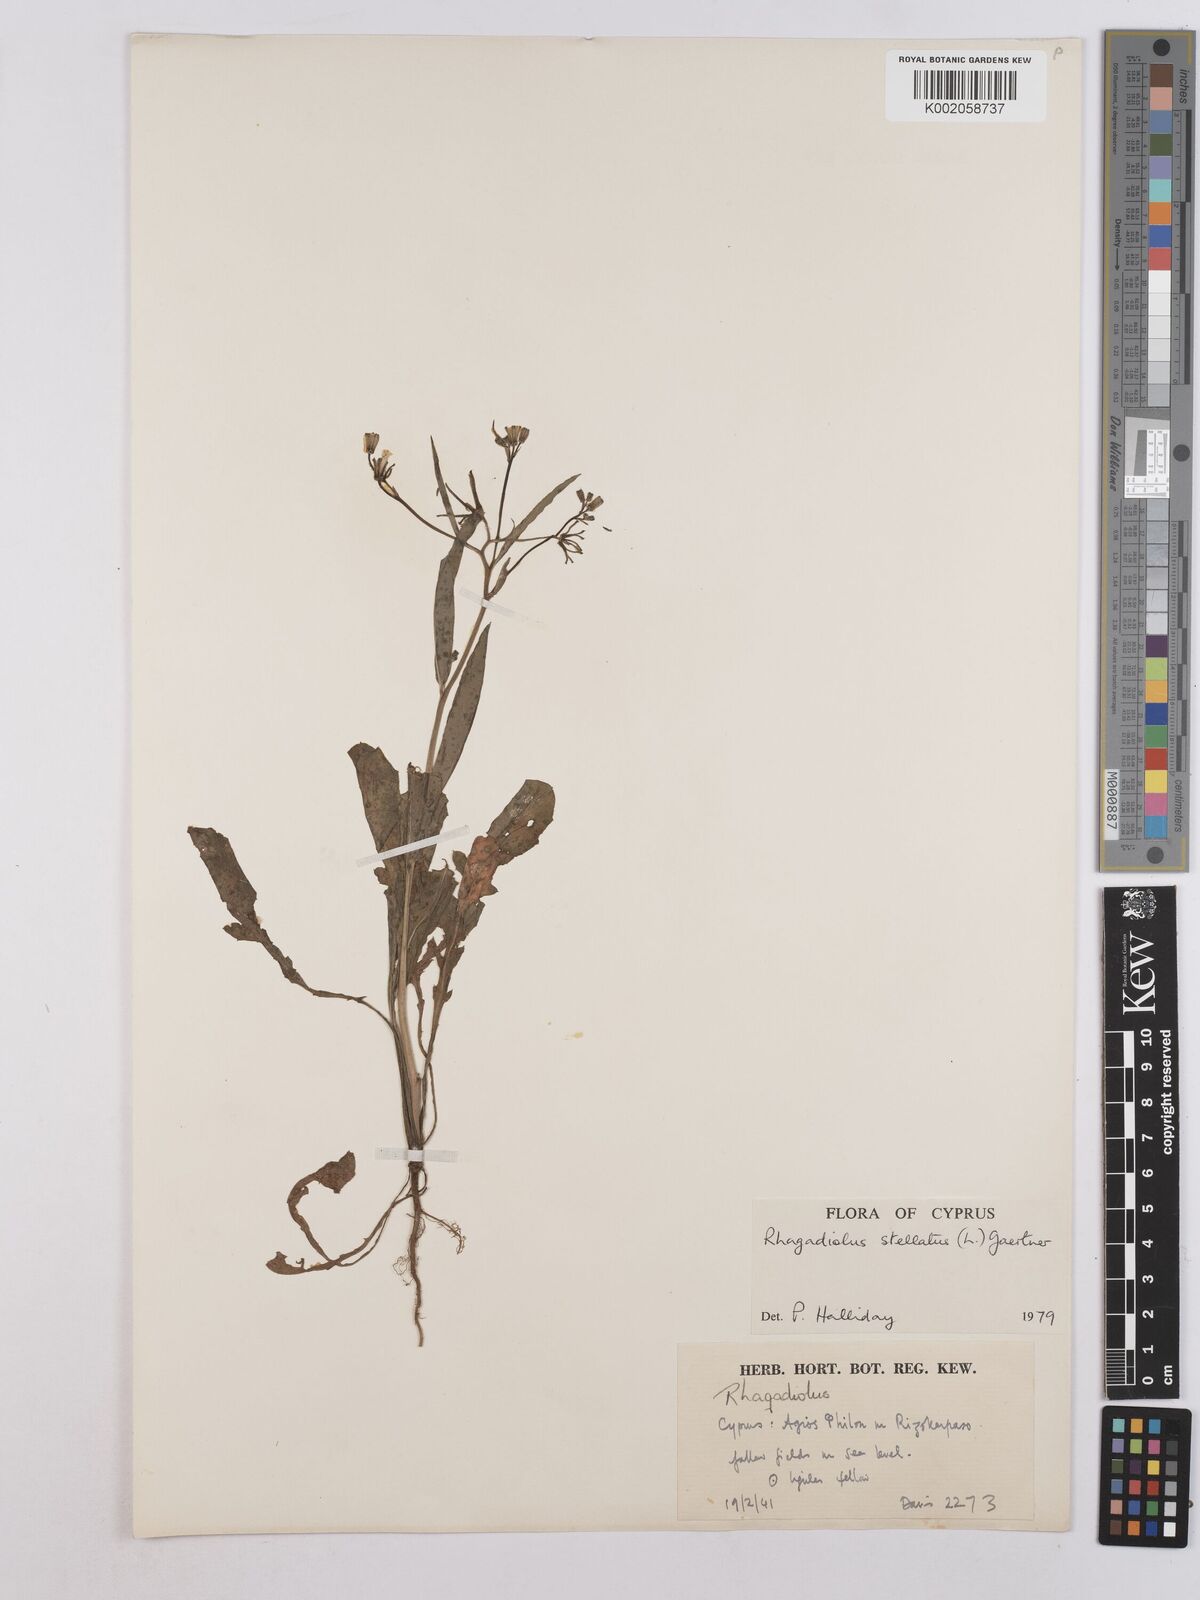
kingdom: Plantae
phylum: Tracheophyta
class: Magnoliopsida
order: Asterales
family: Asteraceae
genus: Rhagadiolus
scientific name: Rhagadiolus stellatus
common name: Star hawkbit
